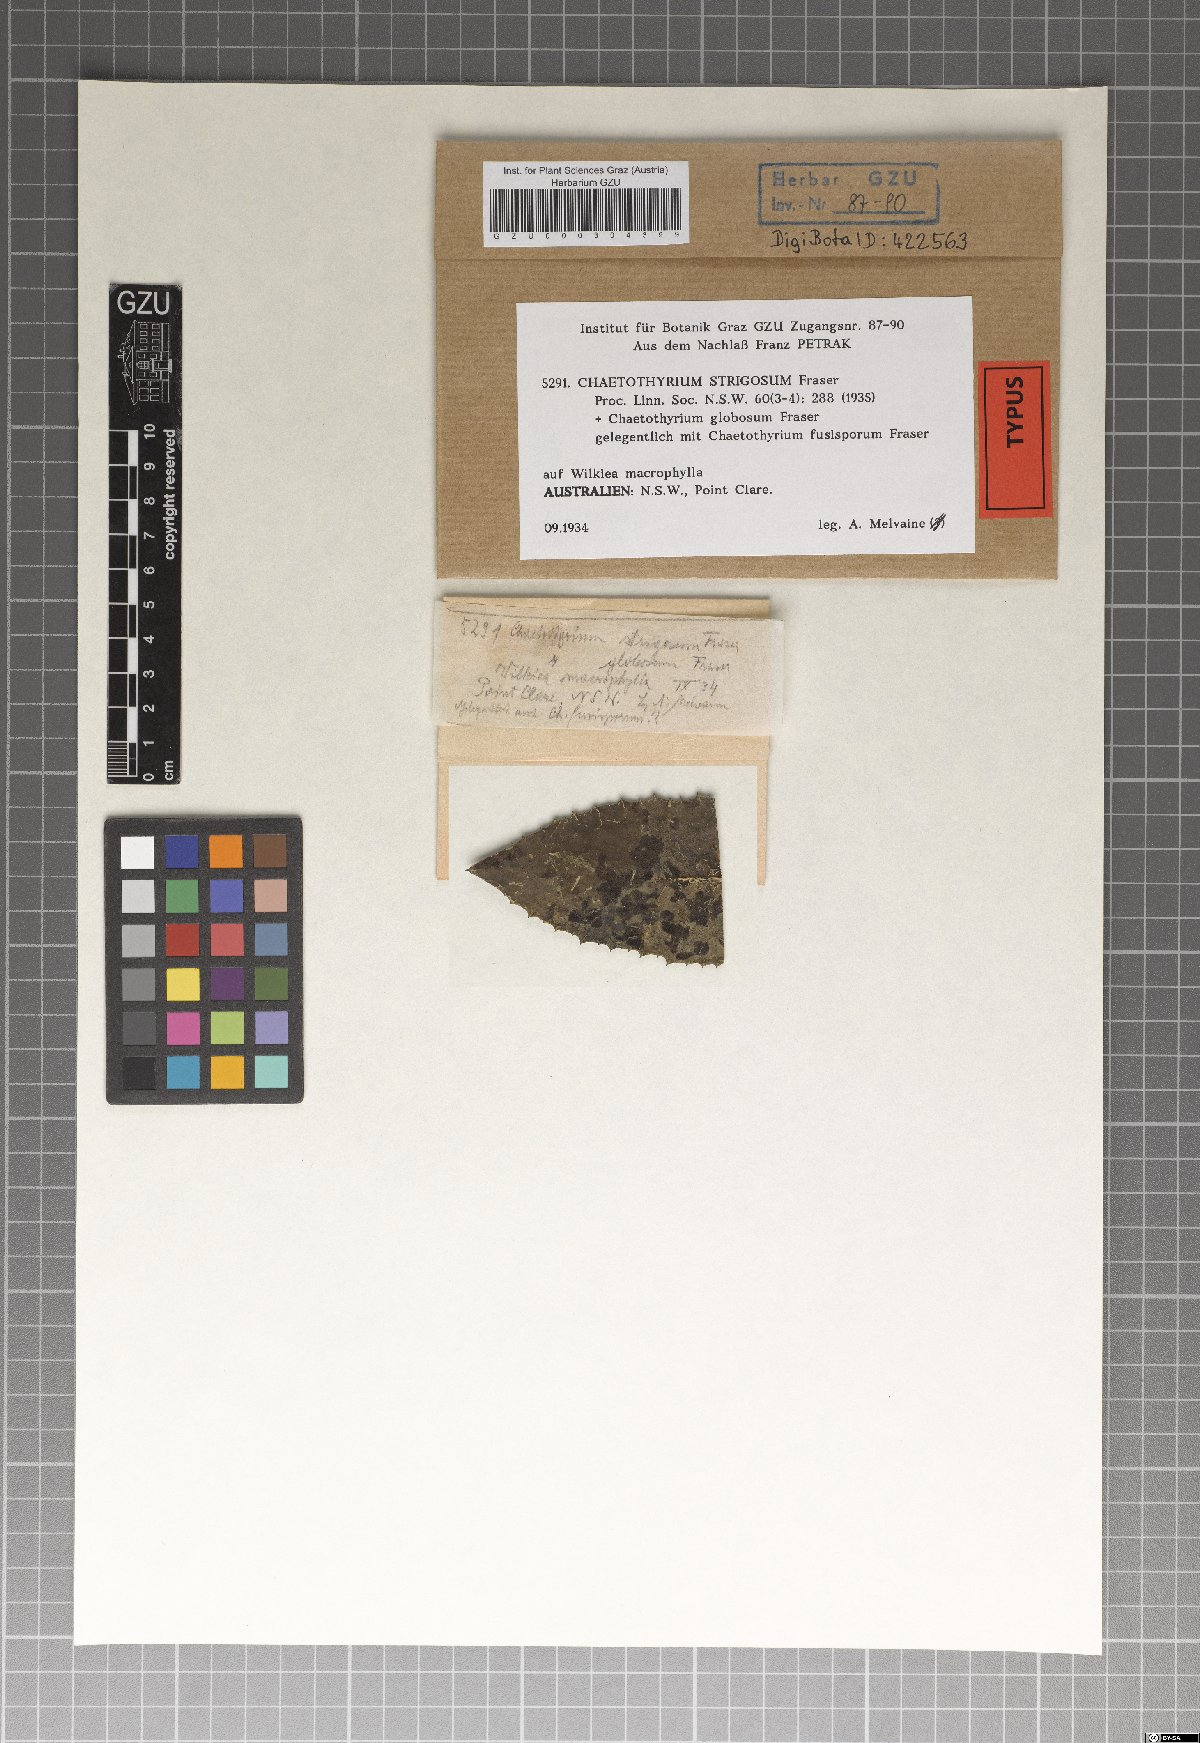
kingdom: Fungi
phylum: Ascomycota
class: Eurotiomycetes
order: Chaetothyriales
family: Chaetothyriaceae
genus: Chaetothyrium
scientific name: Chaetothyrium strigosum
